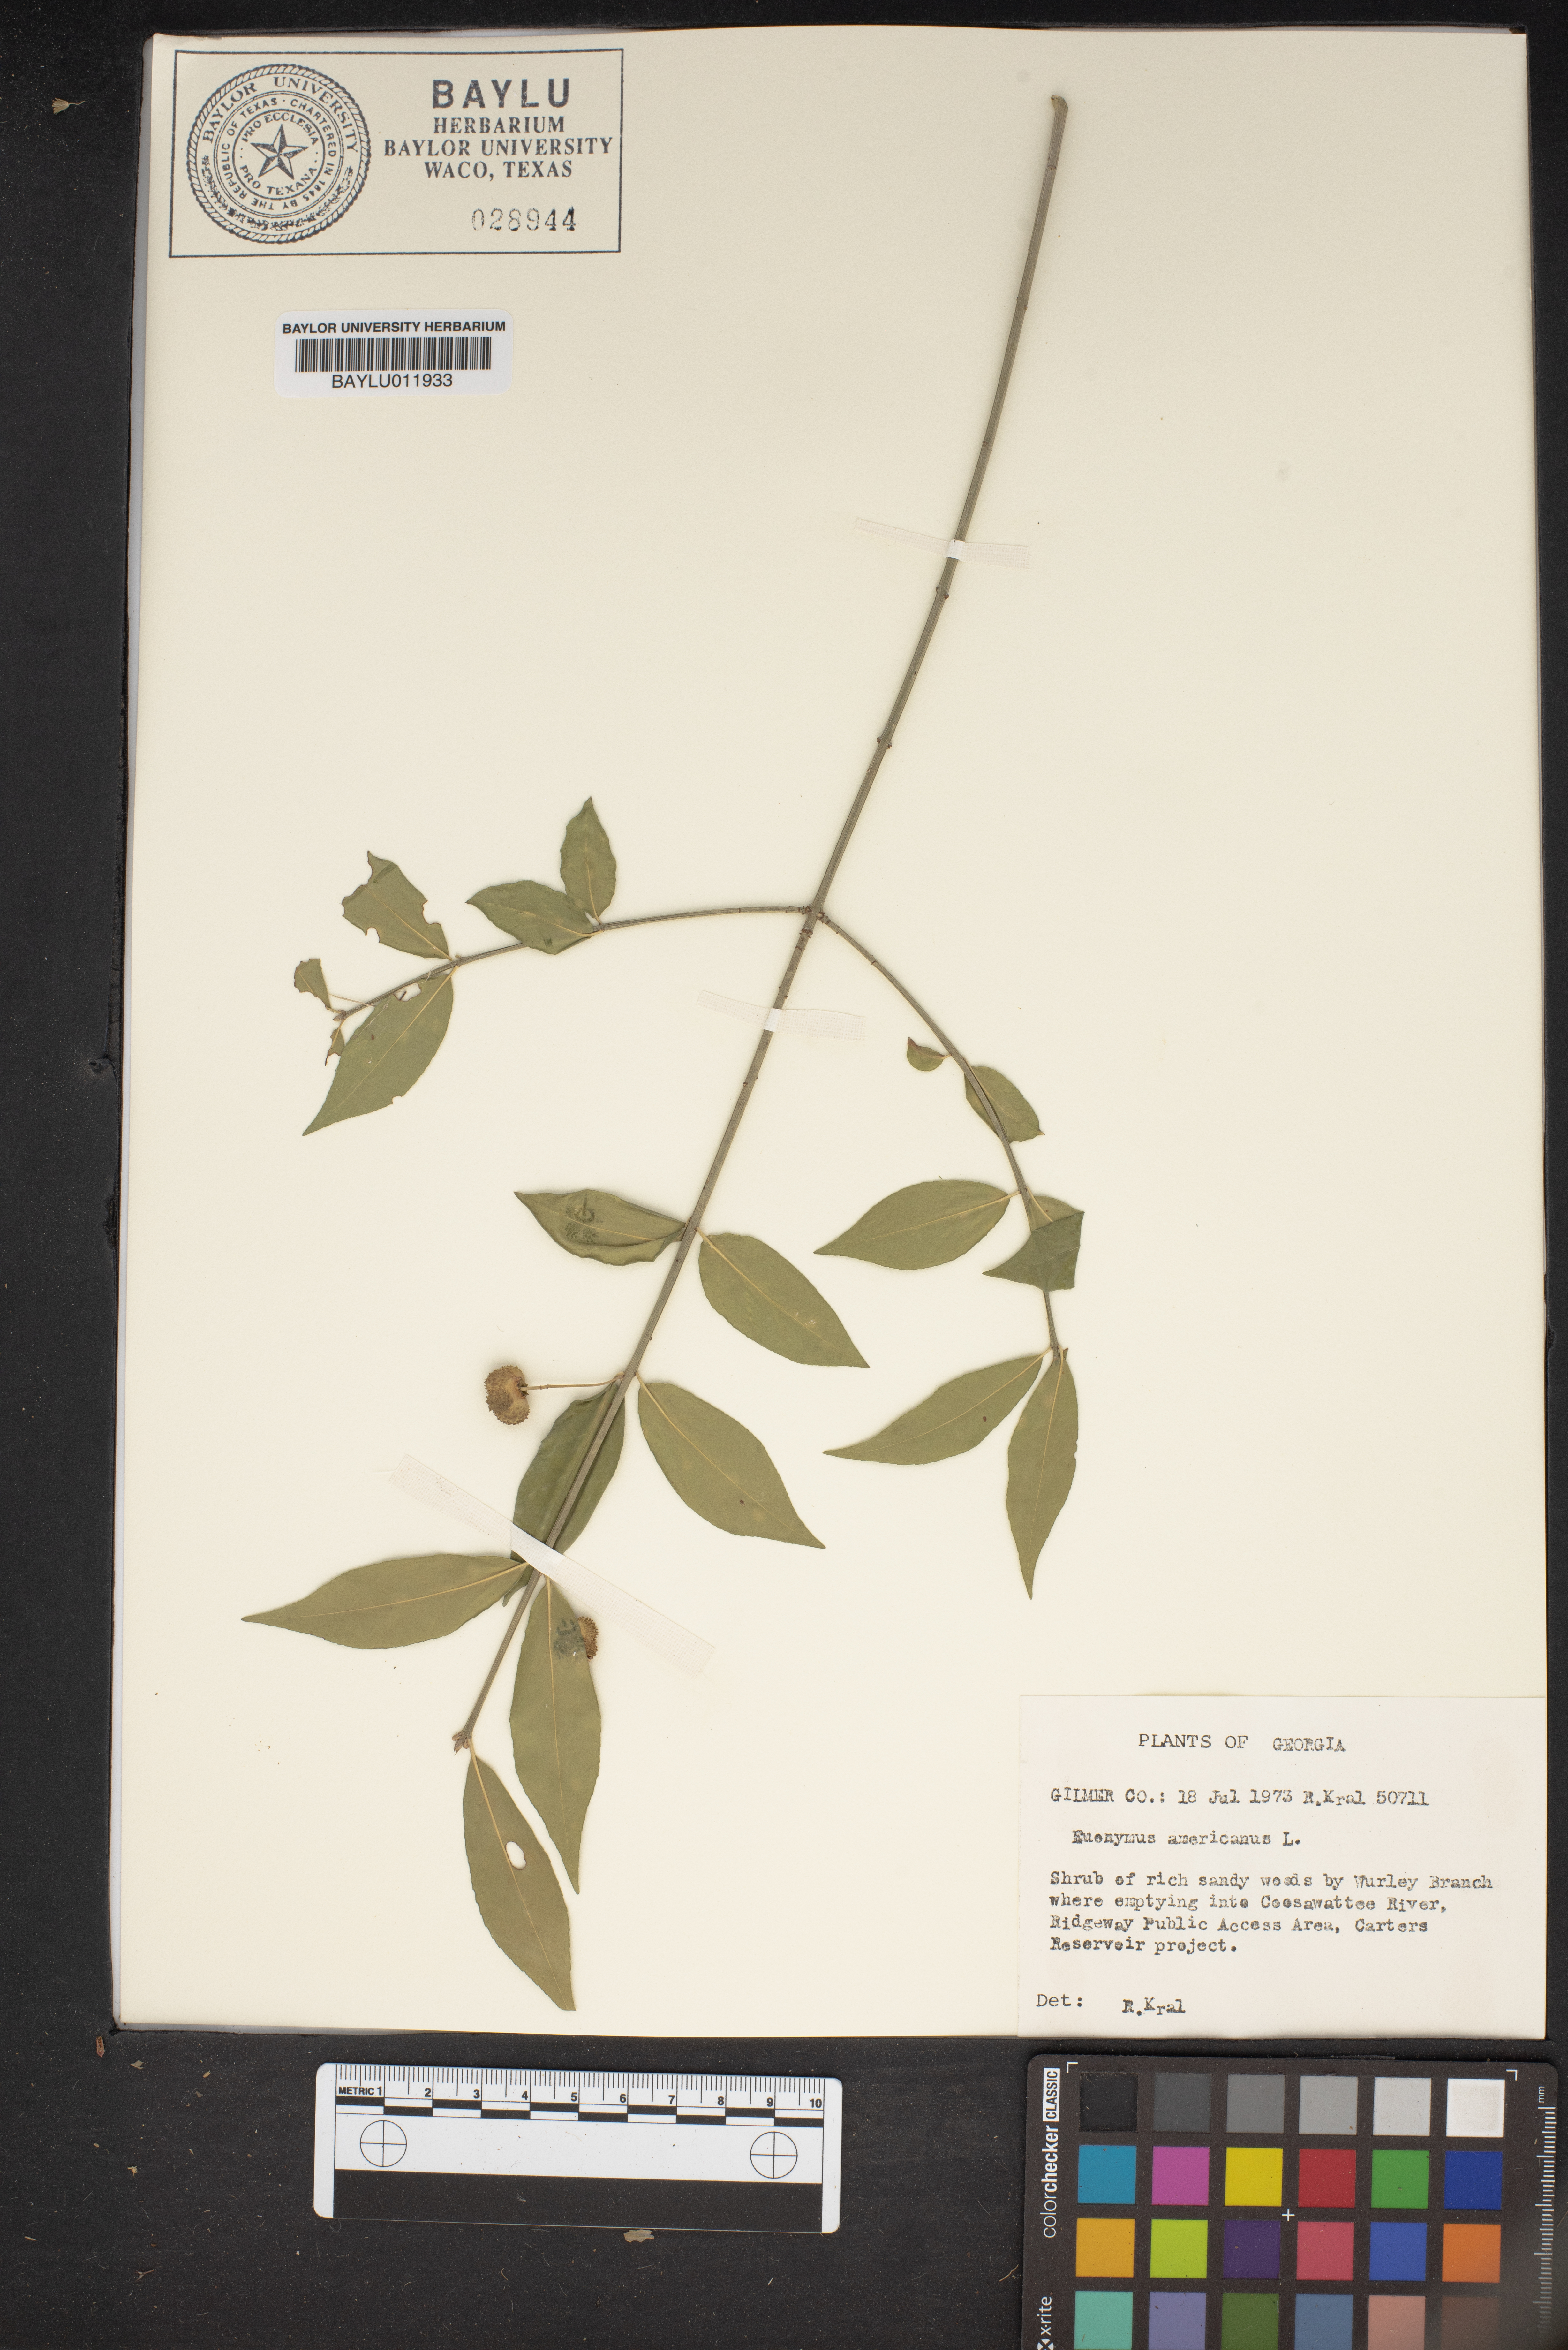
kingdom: Plantae
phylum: Tracheophyta
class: Magnoliopsida
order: Celastrales
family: Celastraceae
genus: Euonymus
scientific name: Euonymus americanus
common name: Bursting-heart
